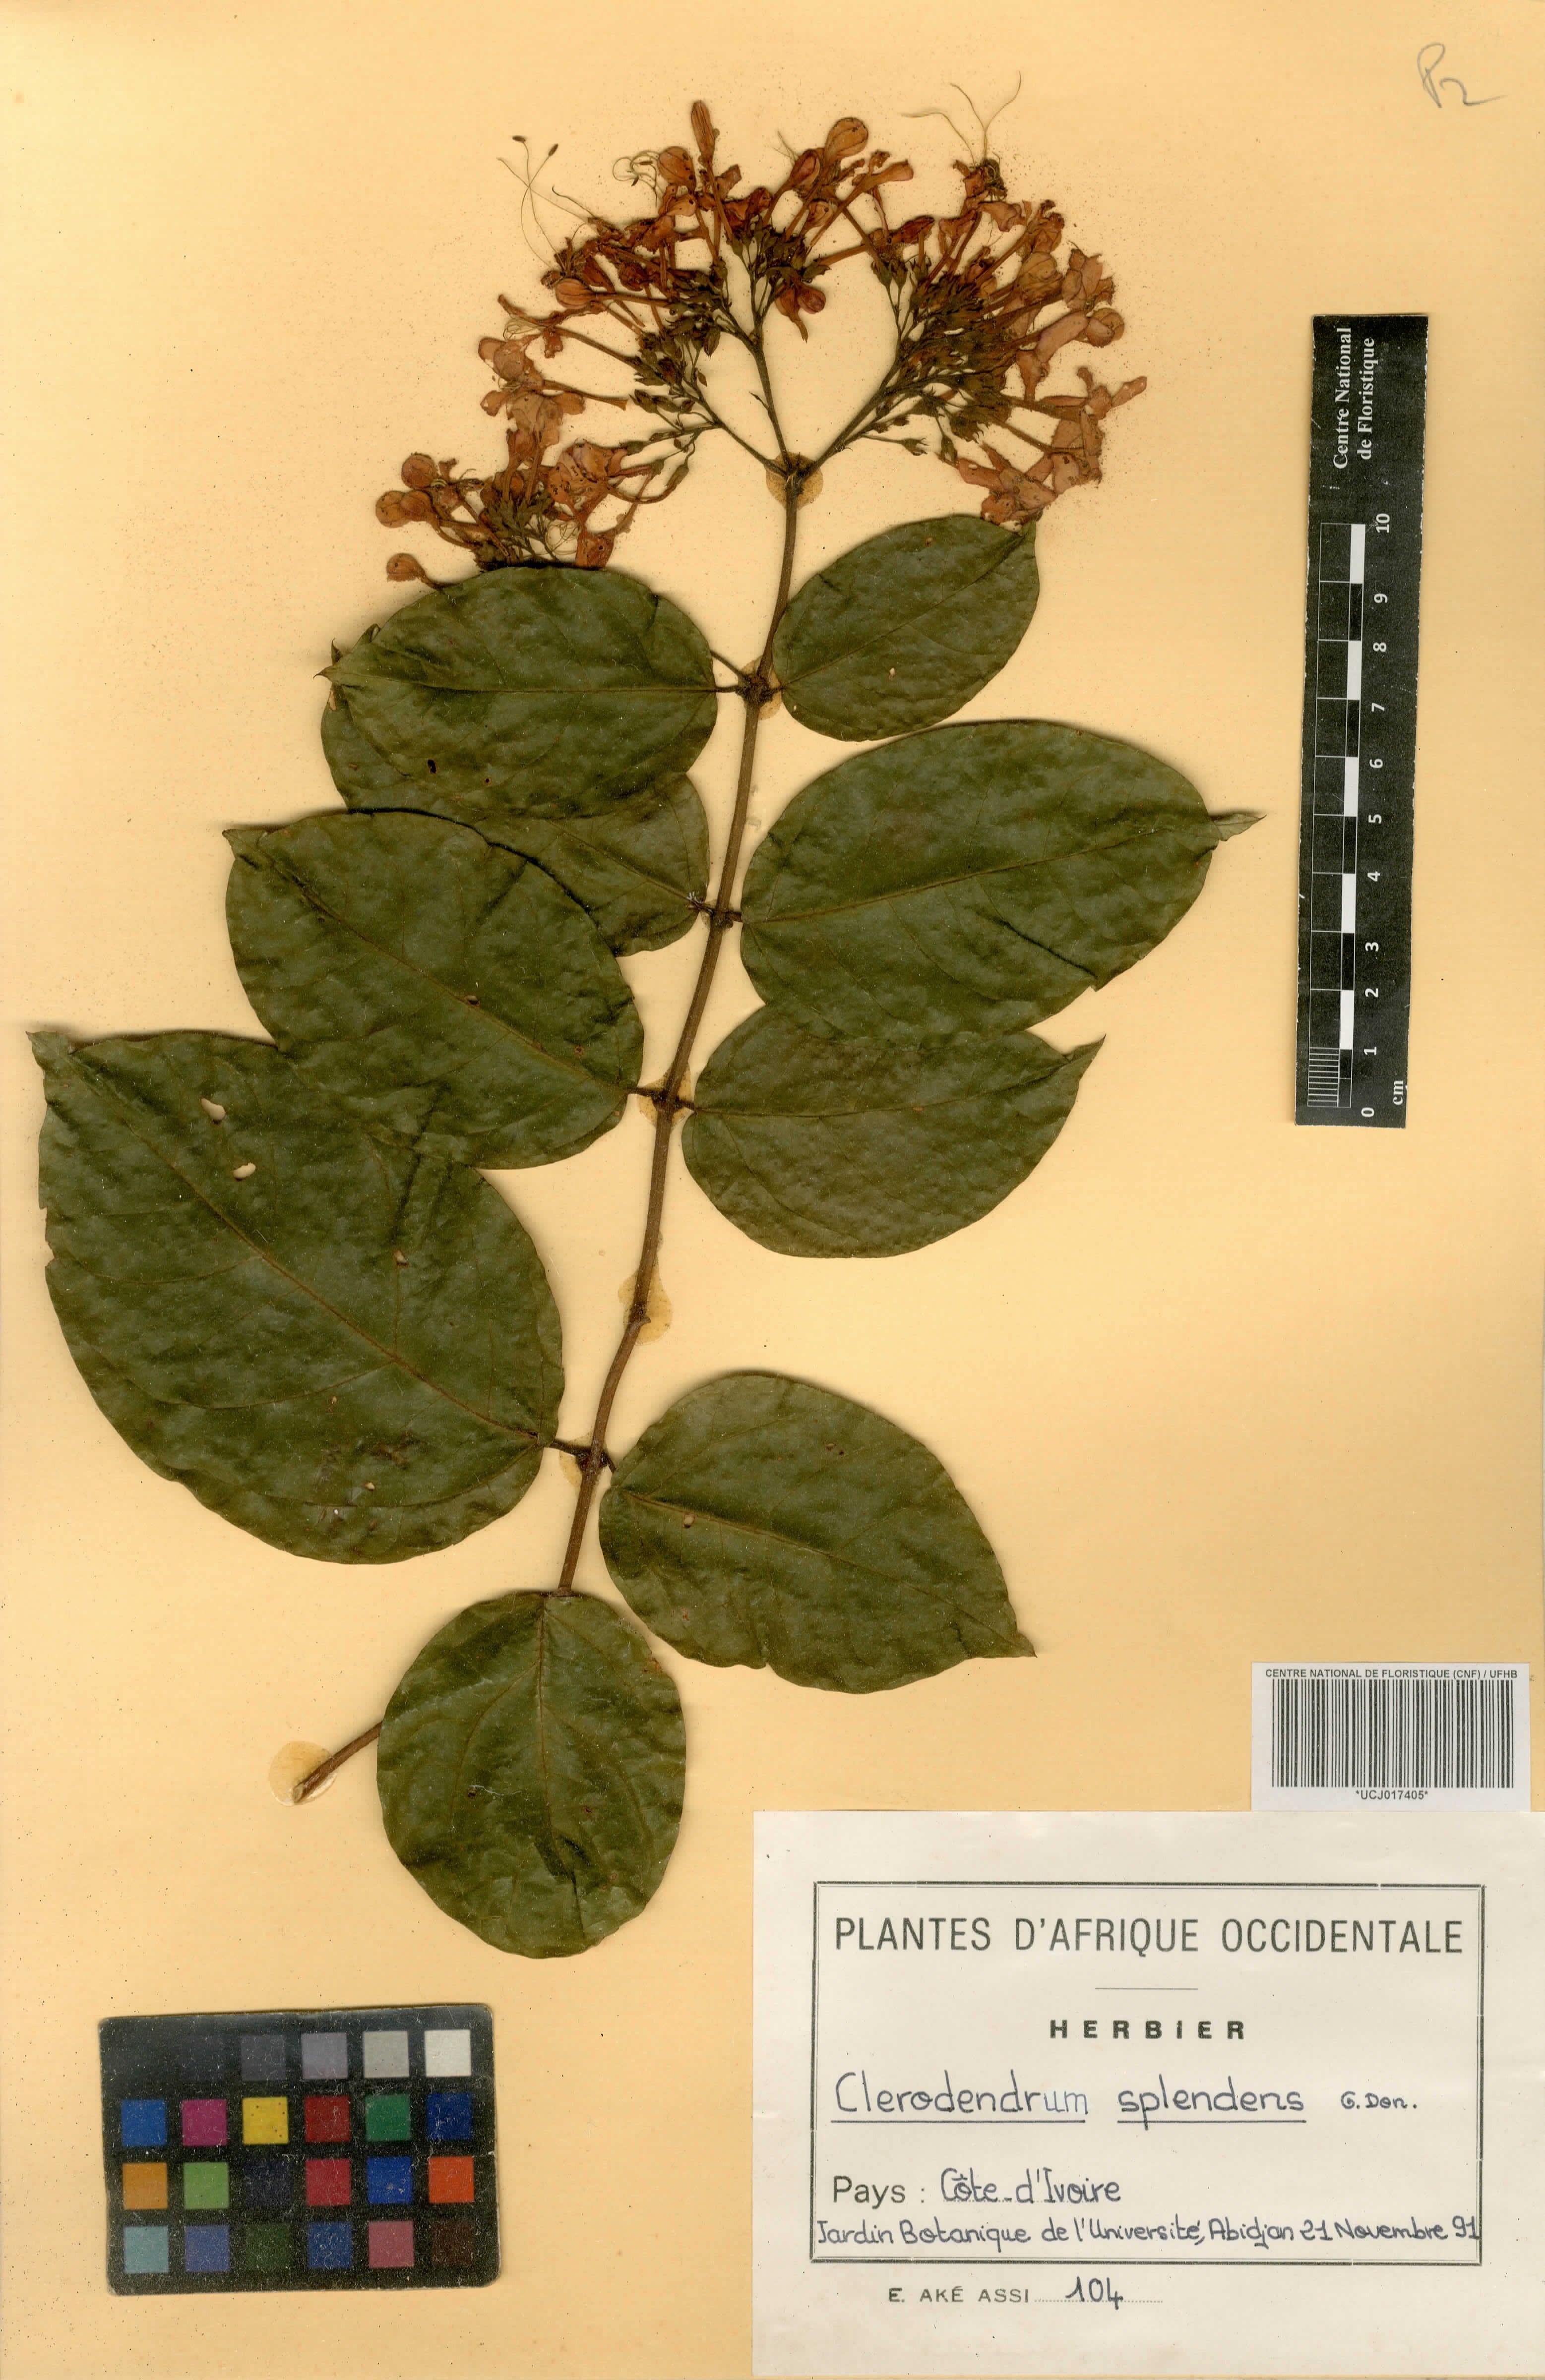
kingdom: Plantae
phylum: Tracheophyta
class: Magnoliopsida
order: Lamiales
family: Lamiaceae
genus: Clerodendrum
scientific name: Clerodendrum splendens
